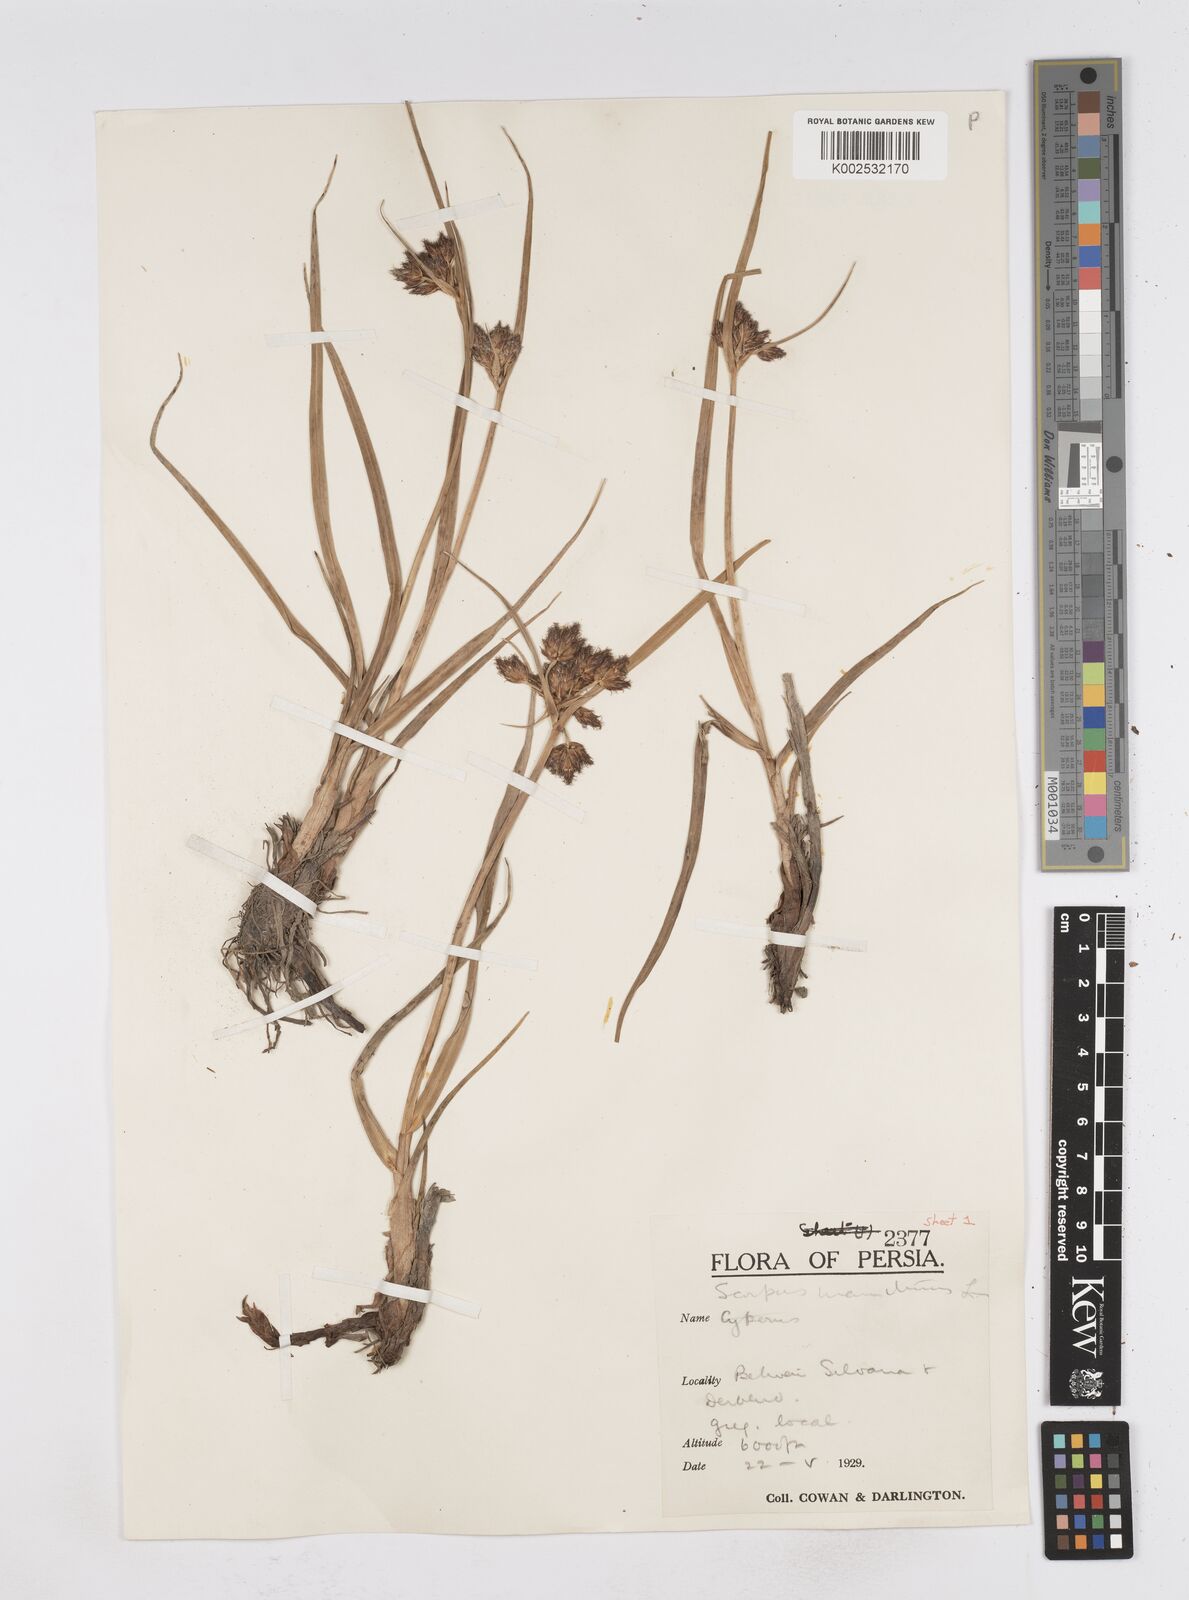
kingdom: Plantae
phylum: Tracheophyta
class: Liliopsida
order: Poales
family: Cyperaceae
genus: Bolboschoenus
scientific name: Bolboschoenus maritimus
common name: Sea club-rush
